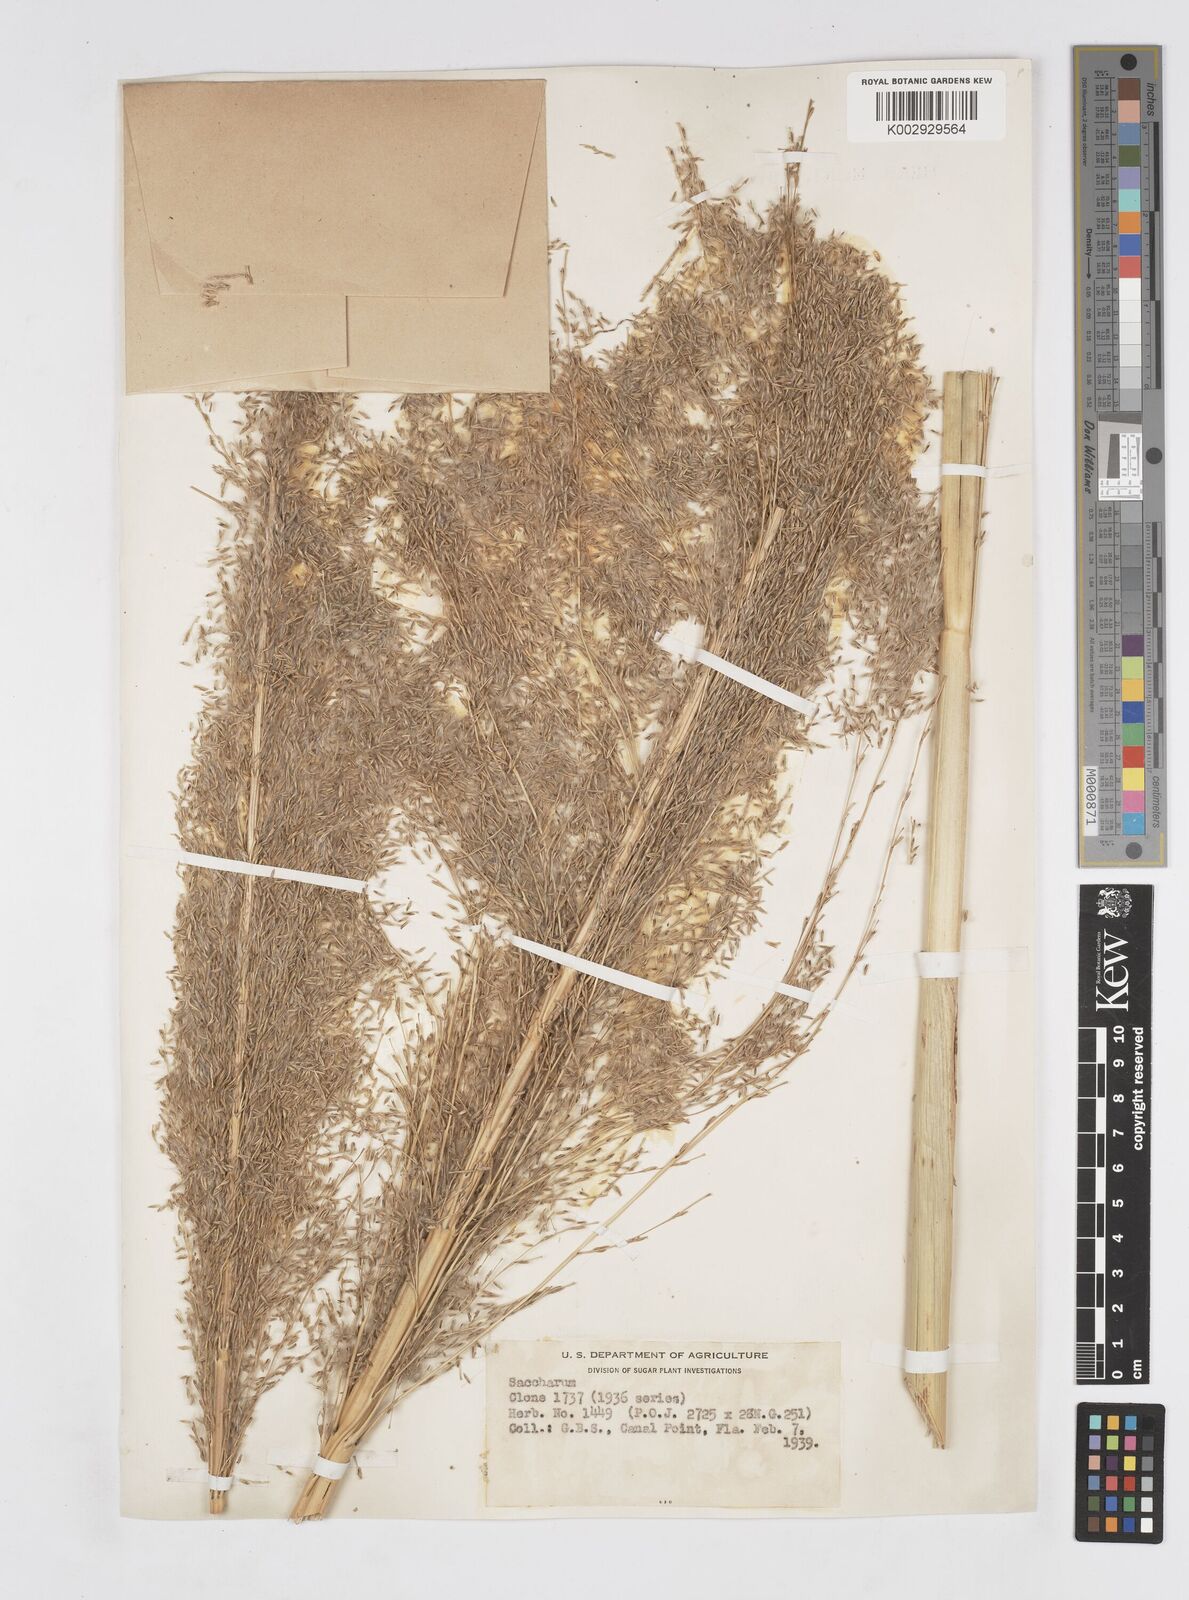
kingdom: Plantae
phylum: Tracheophyta
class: Liliopsida
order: Poales
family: Poaceae
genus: Saccharum
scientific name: Saccharum officinarum
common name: Sugarcane
